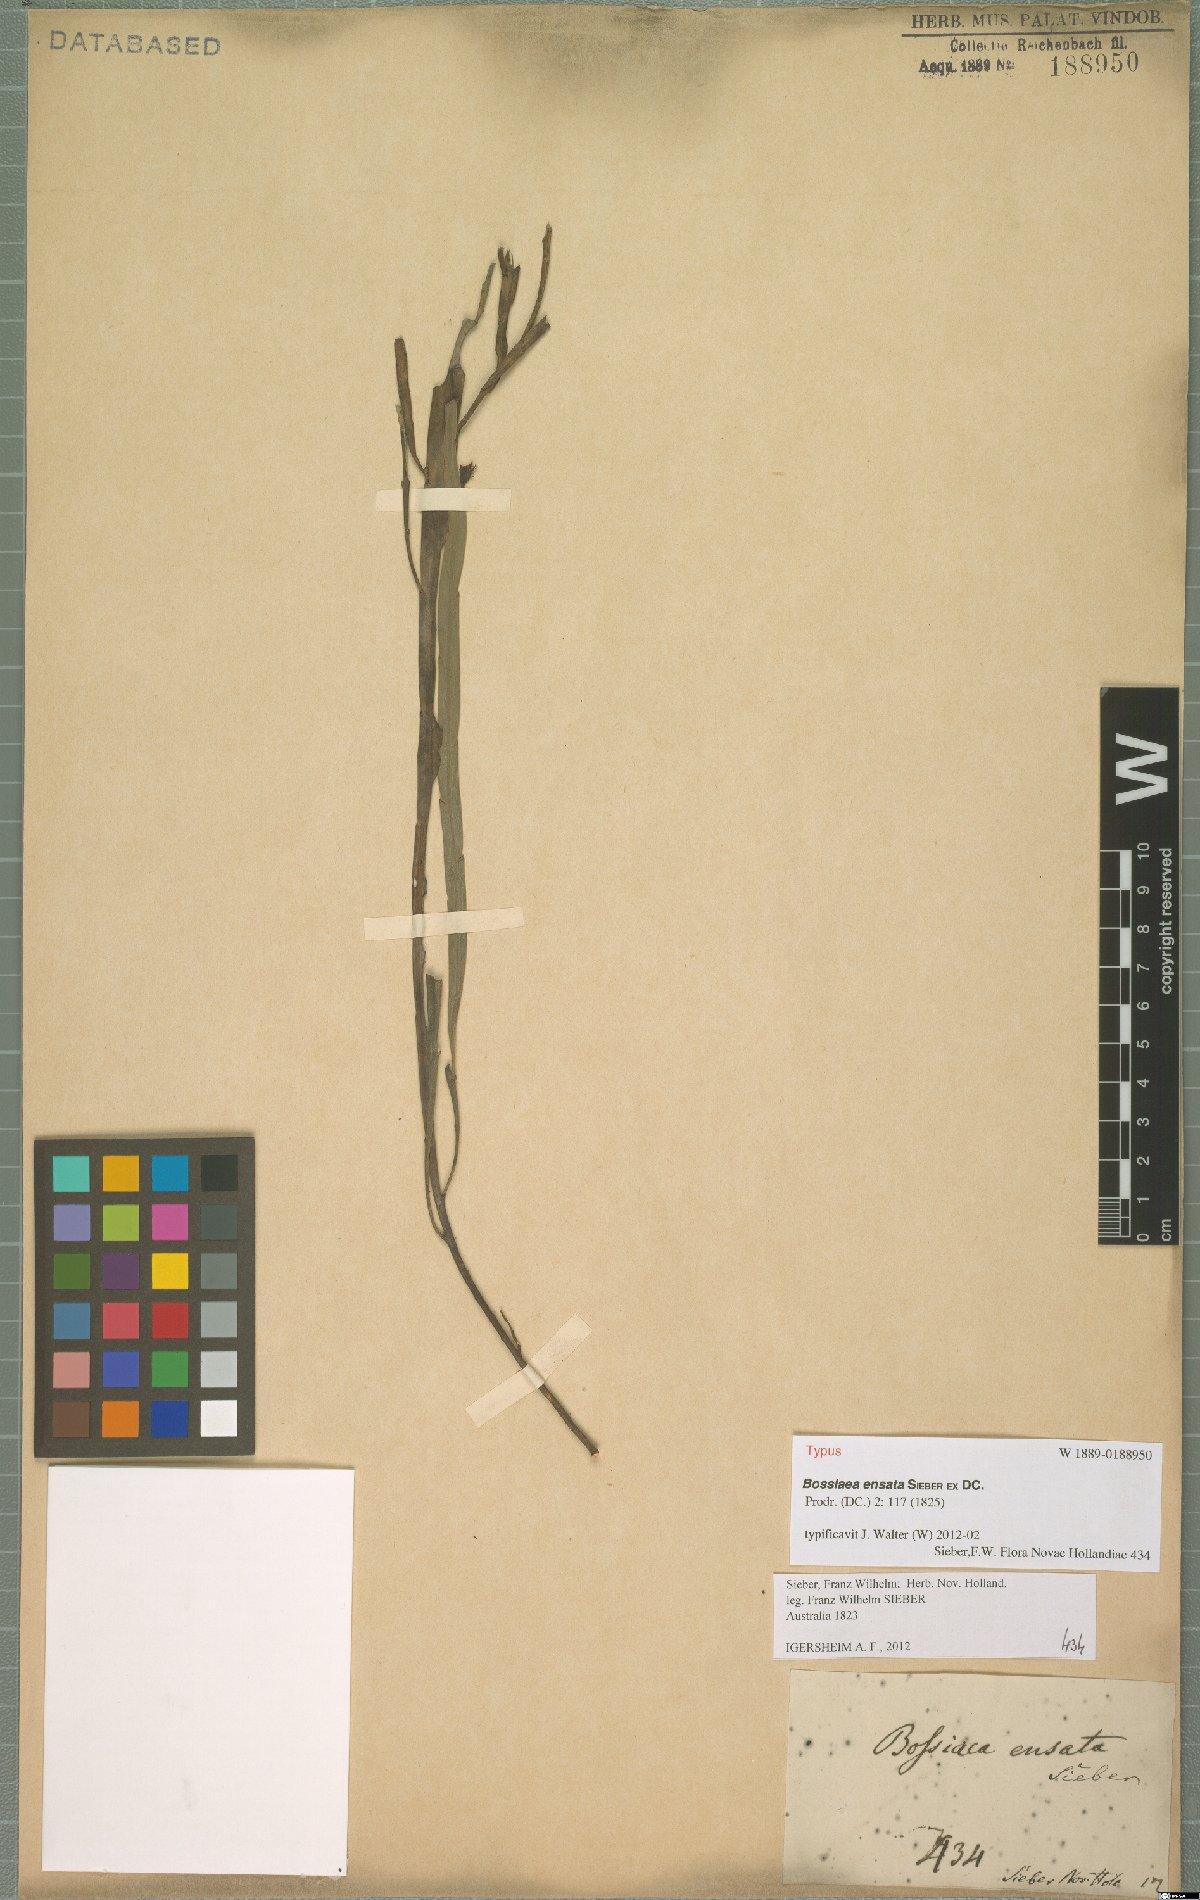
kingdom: Plantae
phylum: Tracheophyta
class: Magnoliopsida
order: Fabales
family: Fabaceae
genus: Bossiaea
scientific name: Bossiaea ensata
